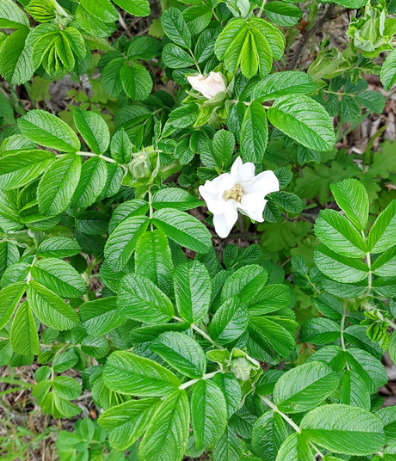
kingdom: Plantae
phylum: Tracheophyta
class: Magnoliopsida
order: Rosales
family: Rosaceae
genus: Rosa
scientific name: Rosa rugosa
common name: Rynket rose
